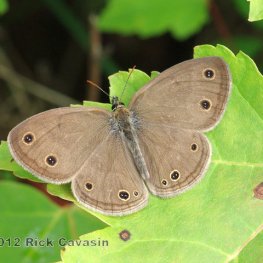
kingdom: Animalia
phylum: Arthropoda
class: Insecta
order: Lepidoptera
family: Nymphalidae
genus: Euptychia
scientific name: Euptychia cymela
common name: Little Wood Satyr
